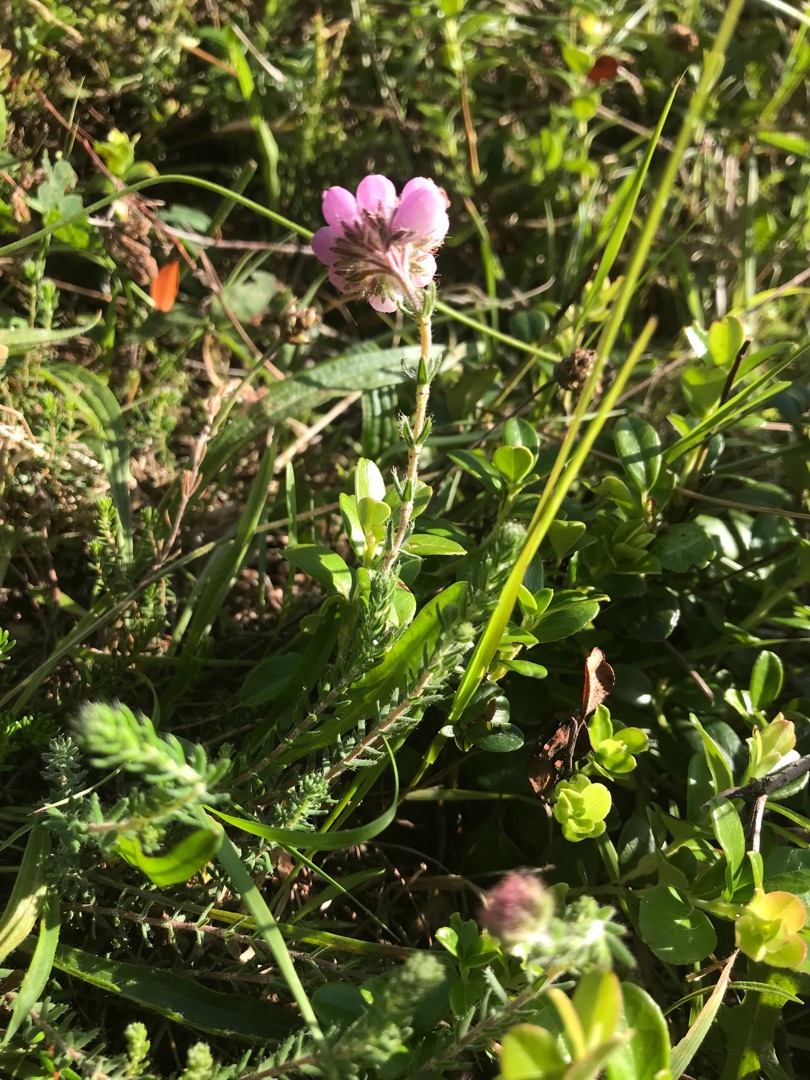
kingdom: Plantae
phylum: Tracheophyta
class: Magnoliopsida
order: Ericales
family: Ericaceae
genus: Erica
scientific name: Erica tetralix
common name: Klokkelyng
